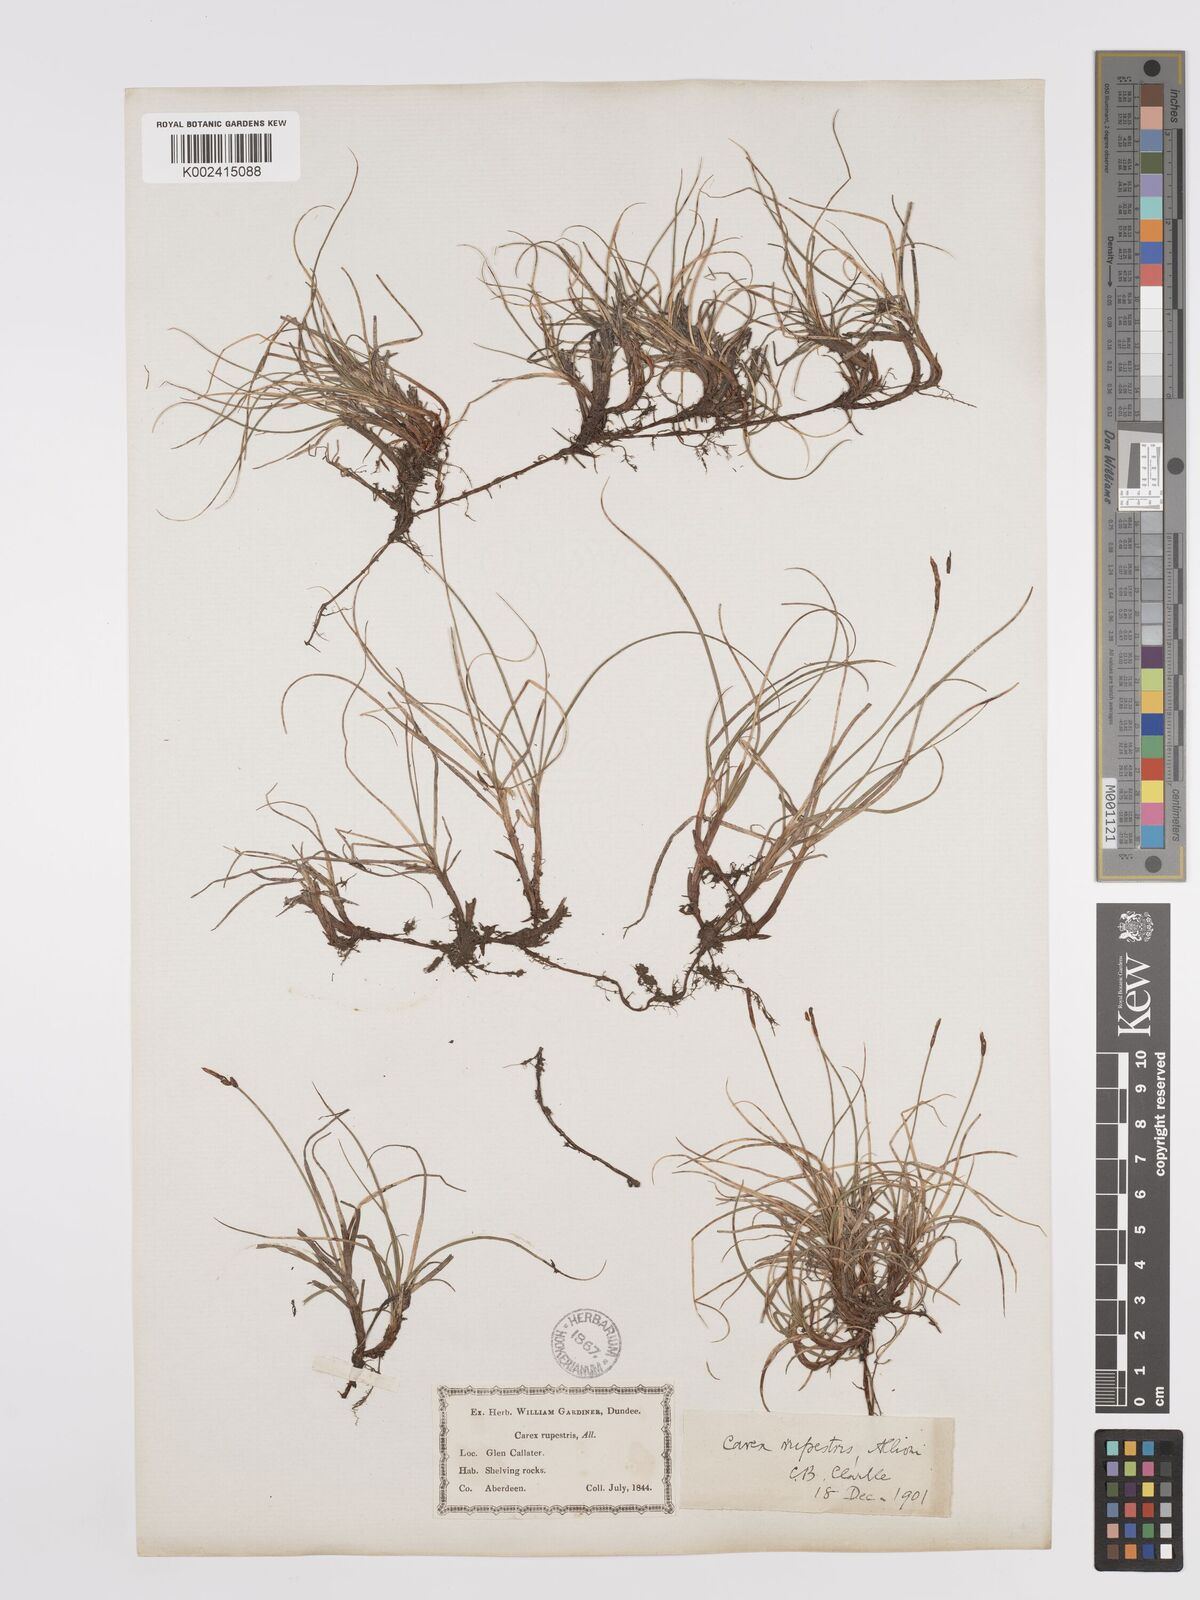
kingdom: Plantae
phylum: Tracheophyta
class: Liliopsida
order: Poales
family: Cyperaceae
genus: Carex
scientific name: Carex rupestris
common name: Rock sedge
